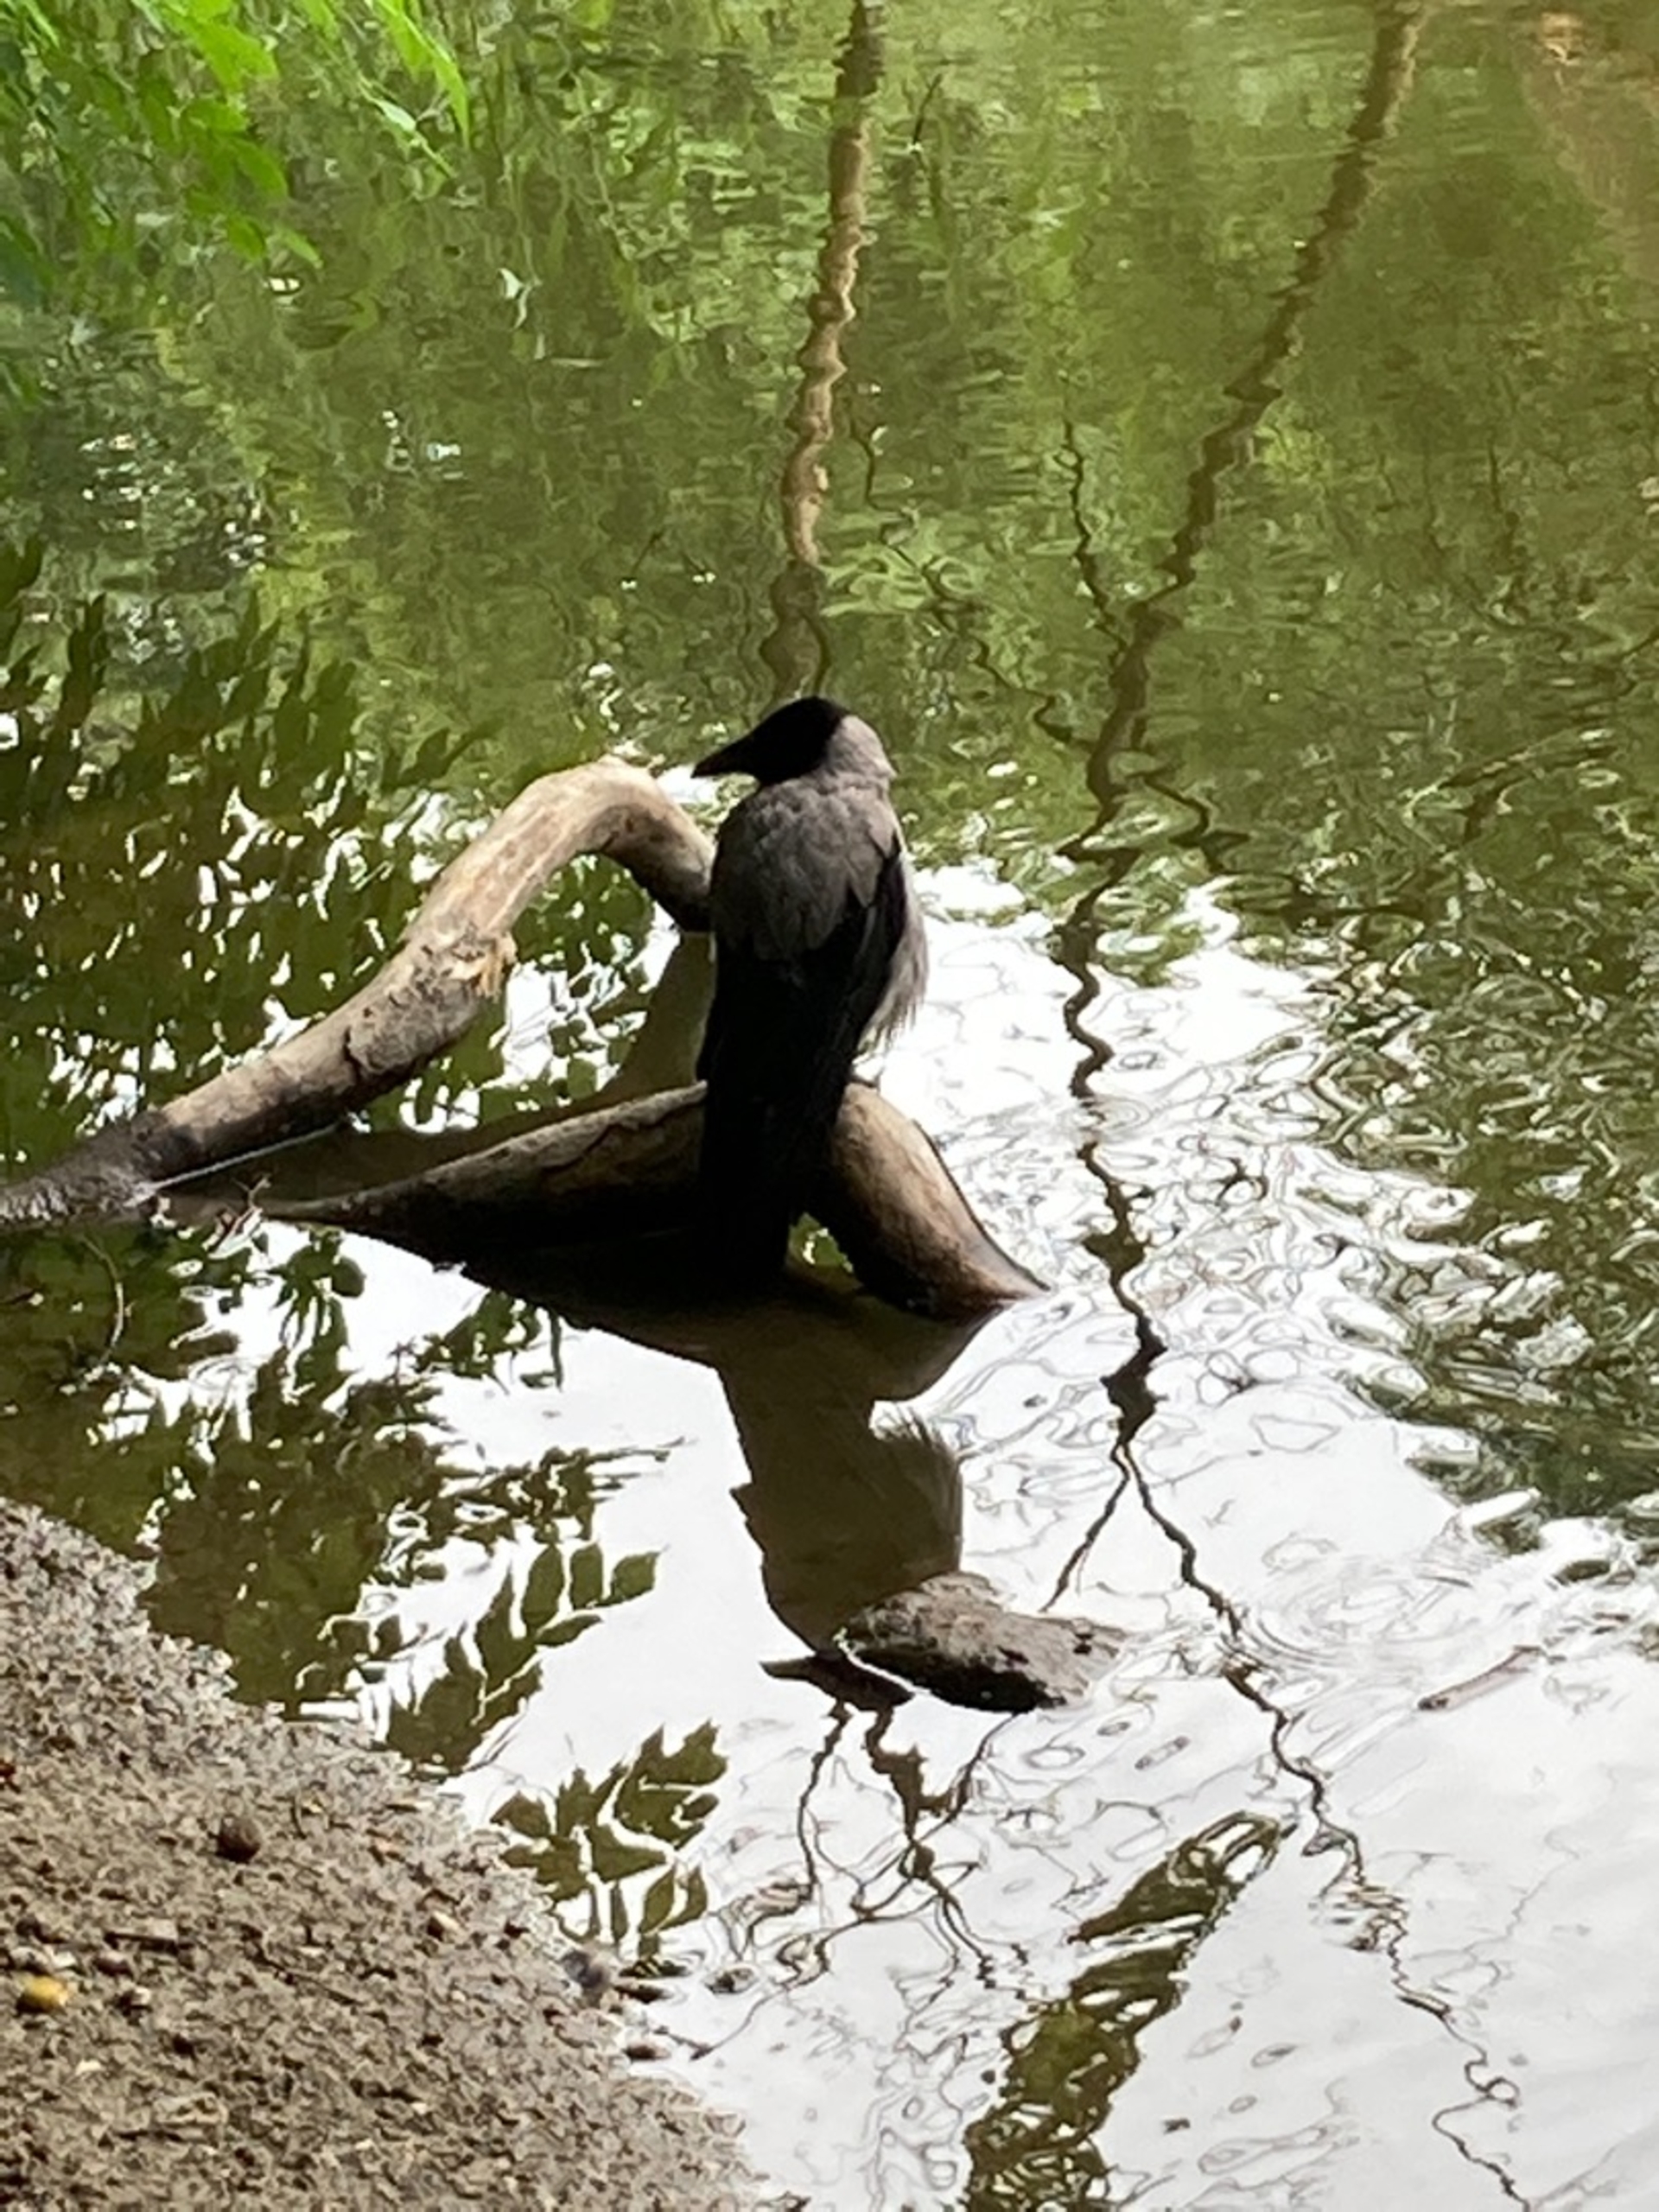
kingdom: Animalia
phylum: Chordata
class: Aves
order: Passeriformes
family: Corvidae
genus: Corvus
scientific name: Corvus cornix
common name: Gråkrage
